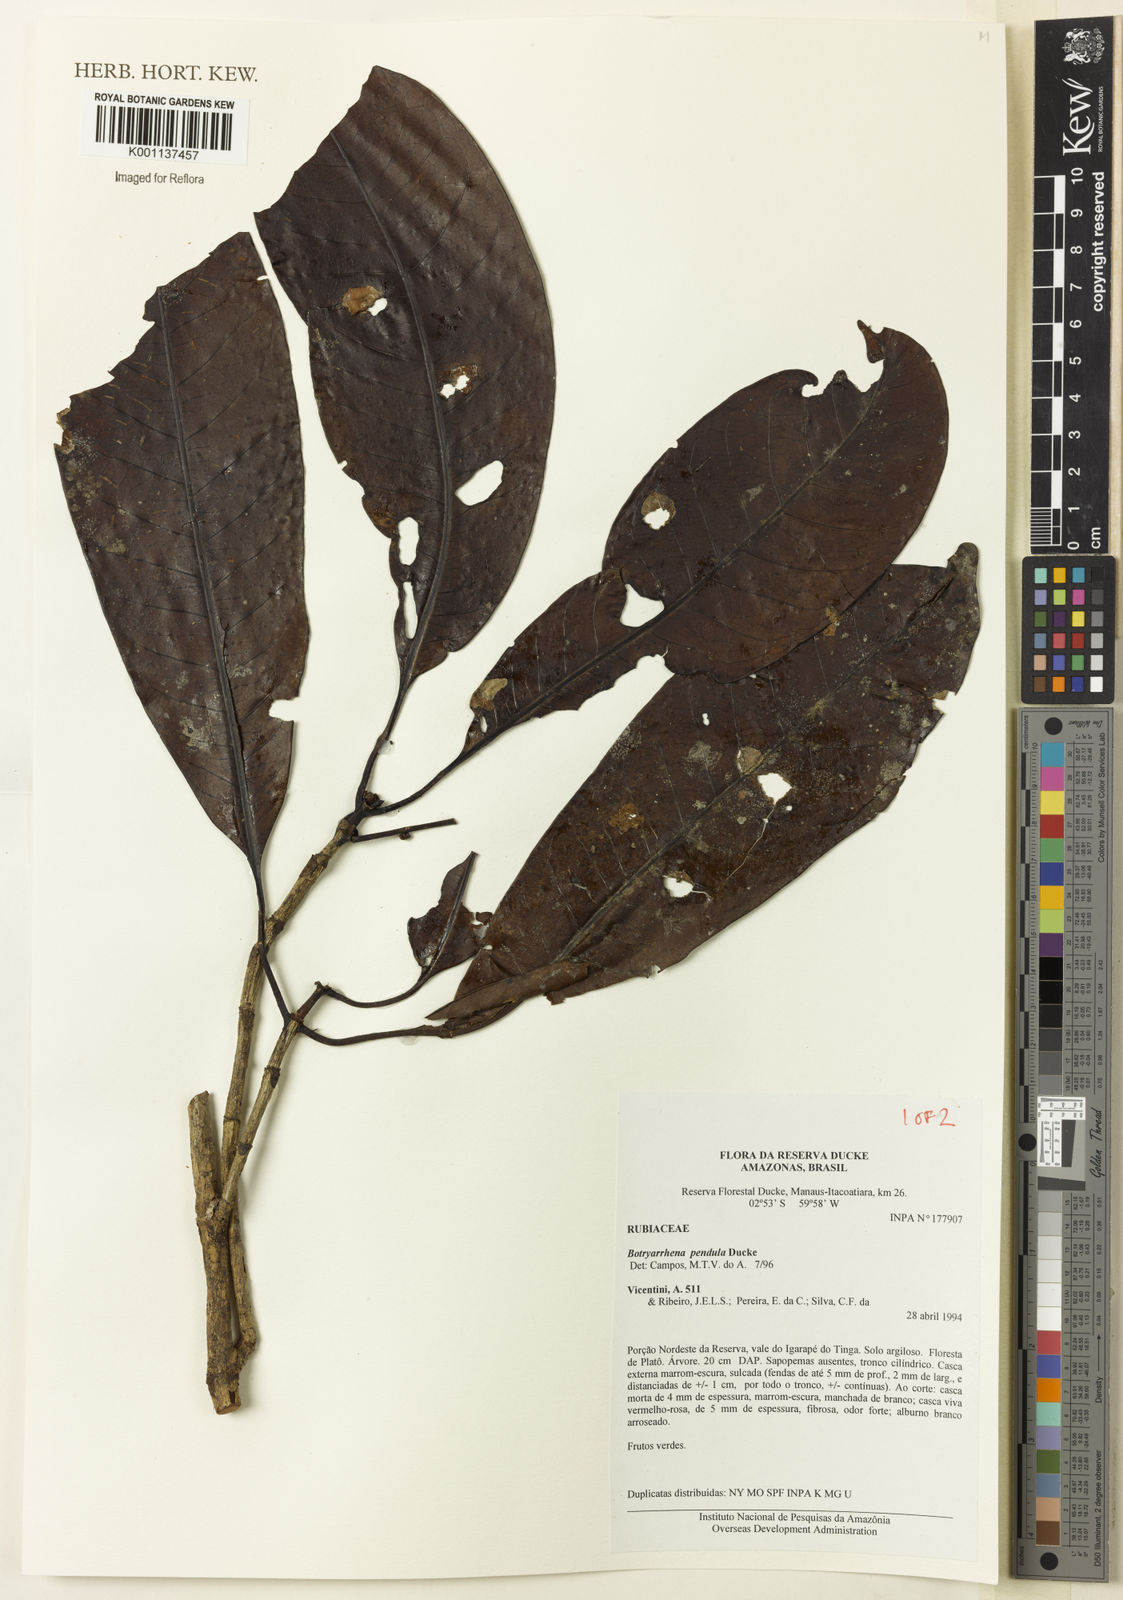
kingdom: Plantae
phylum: Tracheophyta
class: Magnoliopsida
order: Gentianales
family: Rubiaceae
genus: Botryarrhena
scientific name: Botryarrhena pendula
